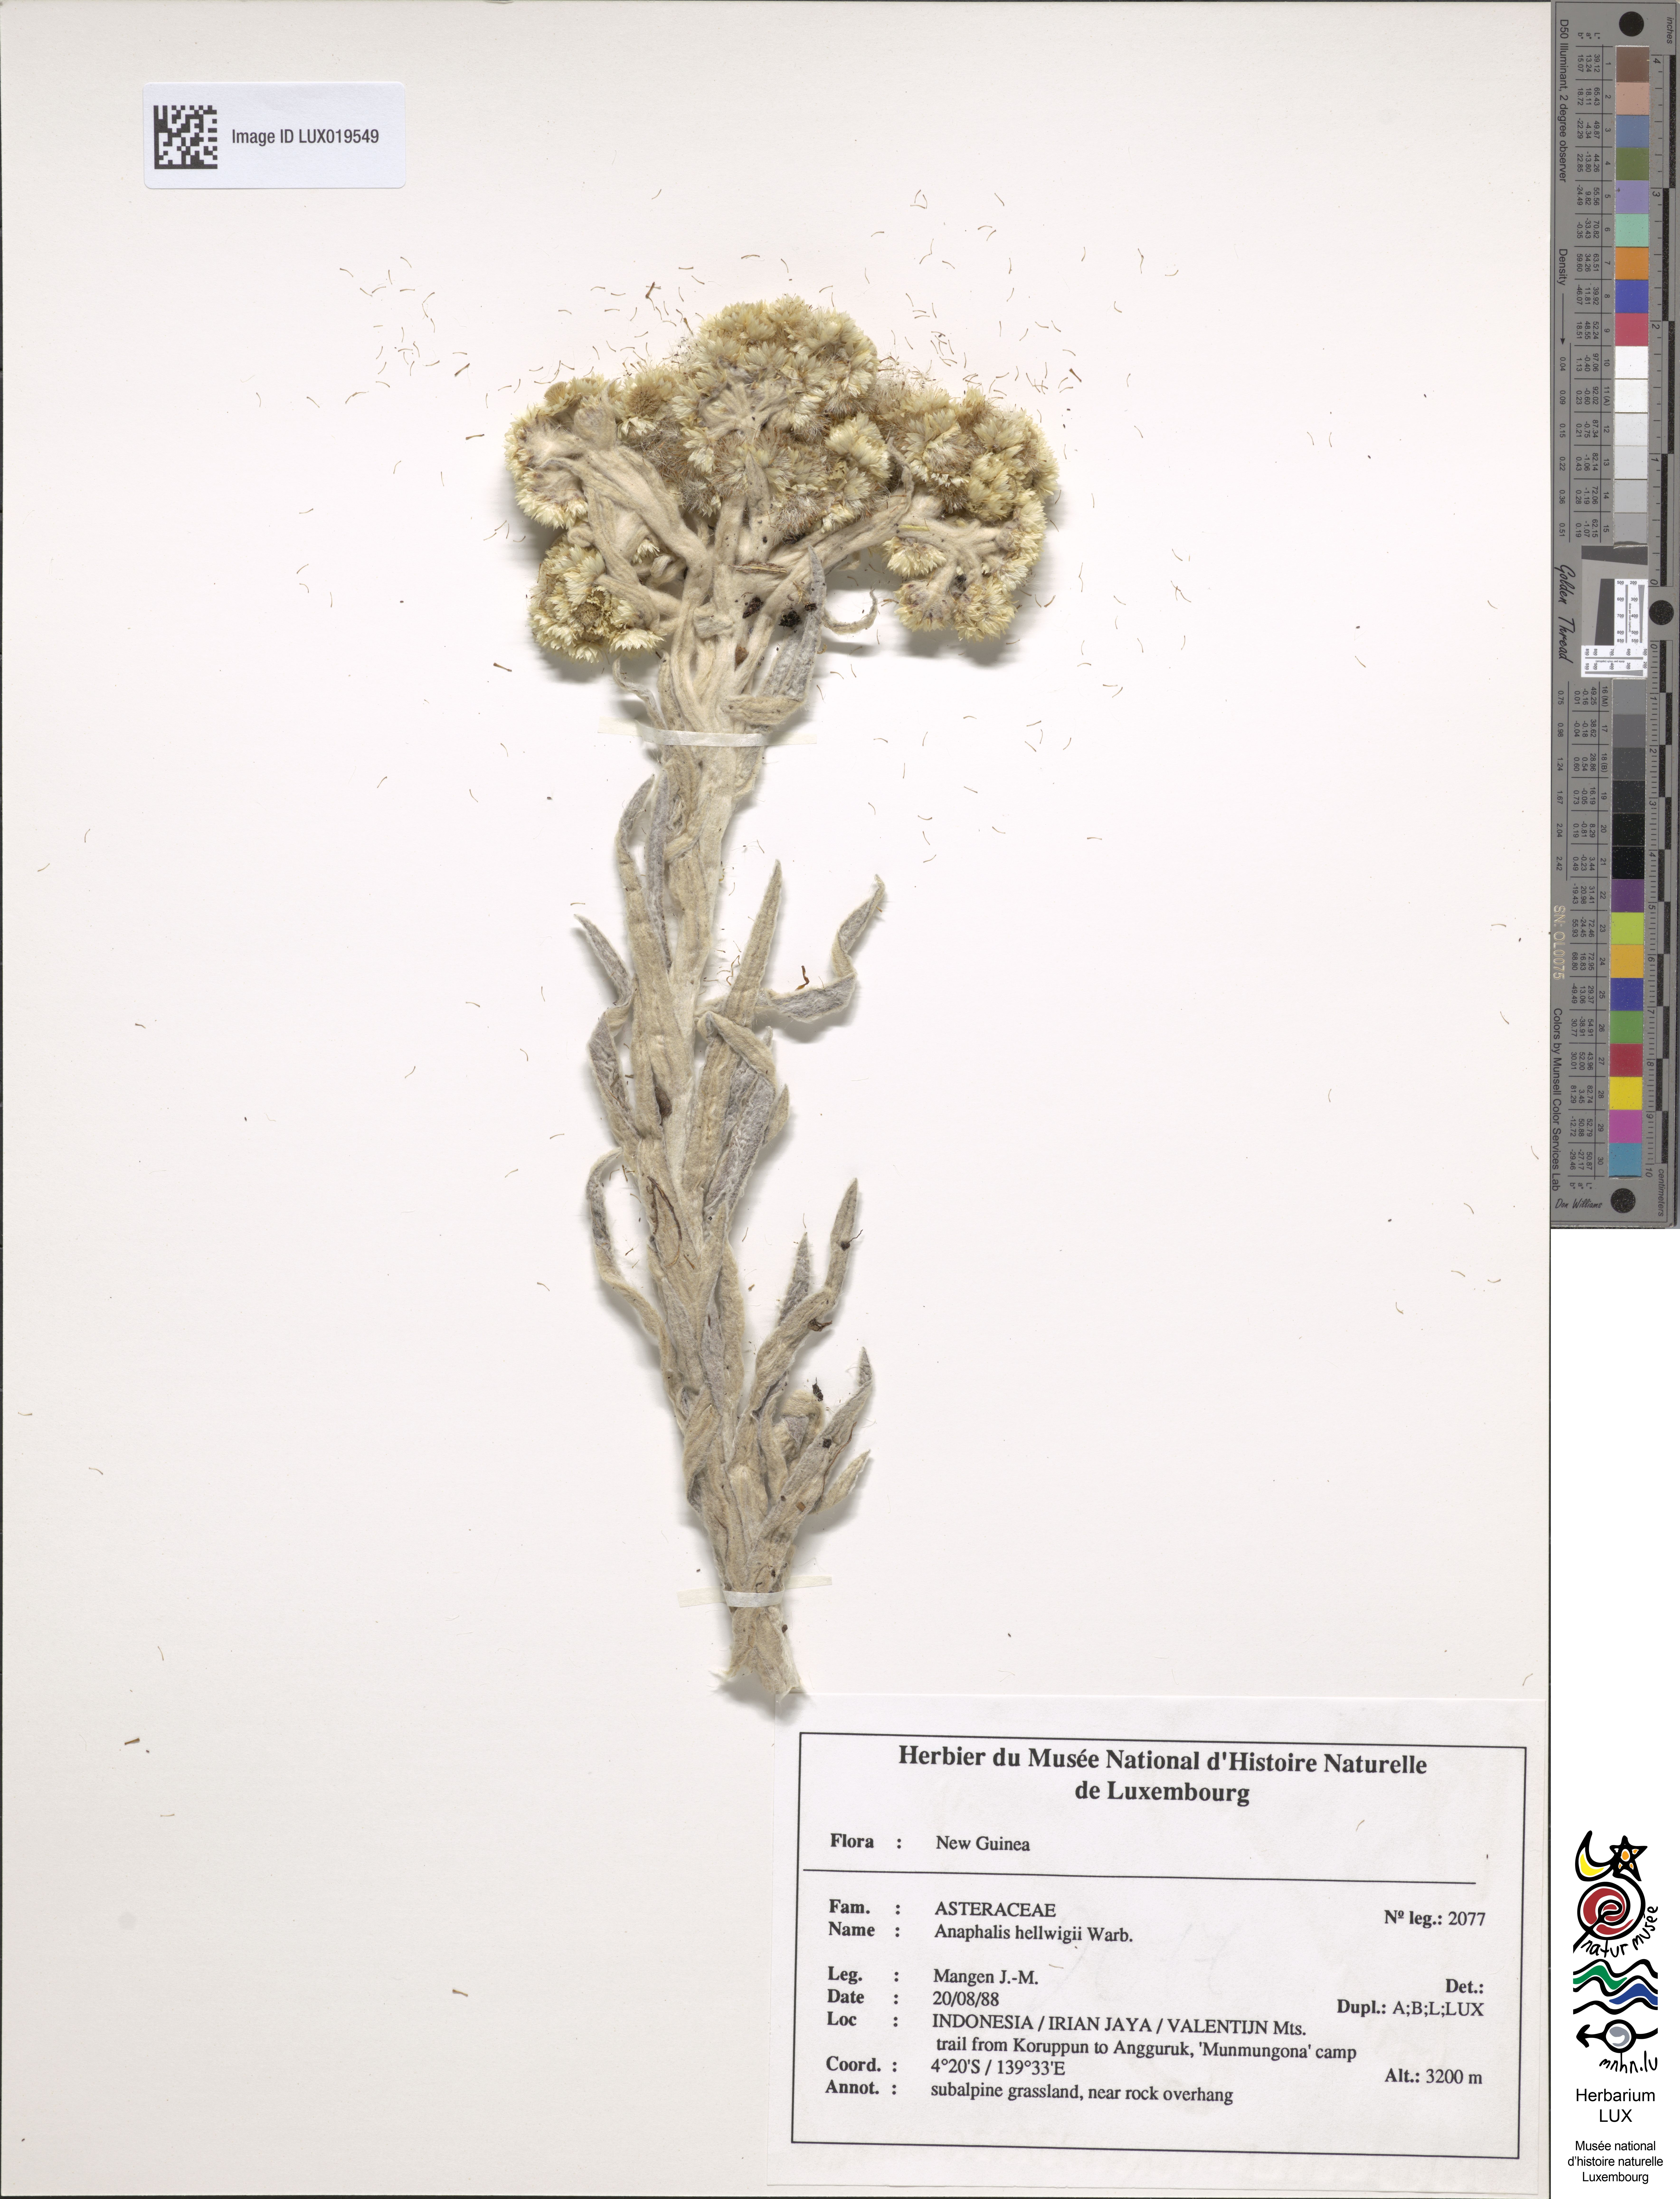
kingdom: Plantae
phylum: Tracheophyta
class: Magnoliopsida
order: Asterales
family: Asteraceae
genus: Anaphalis
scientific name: Anaphalis hellwigii
